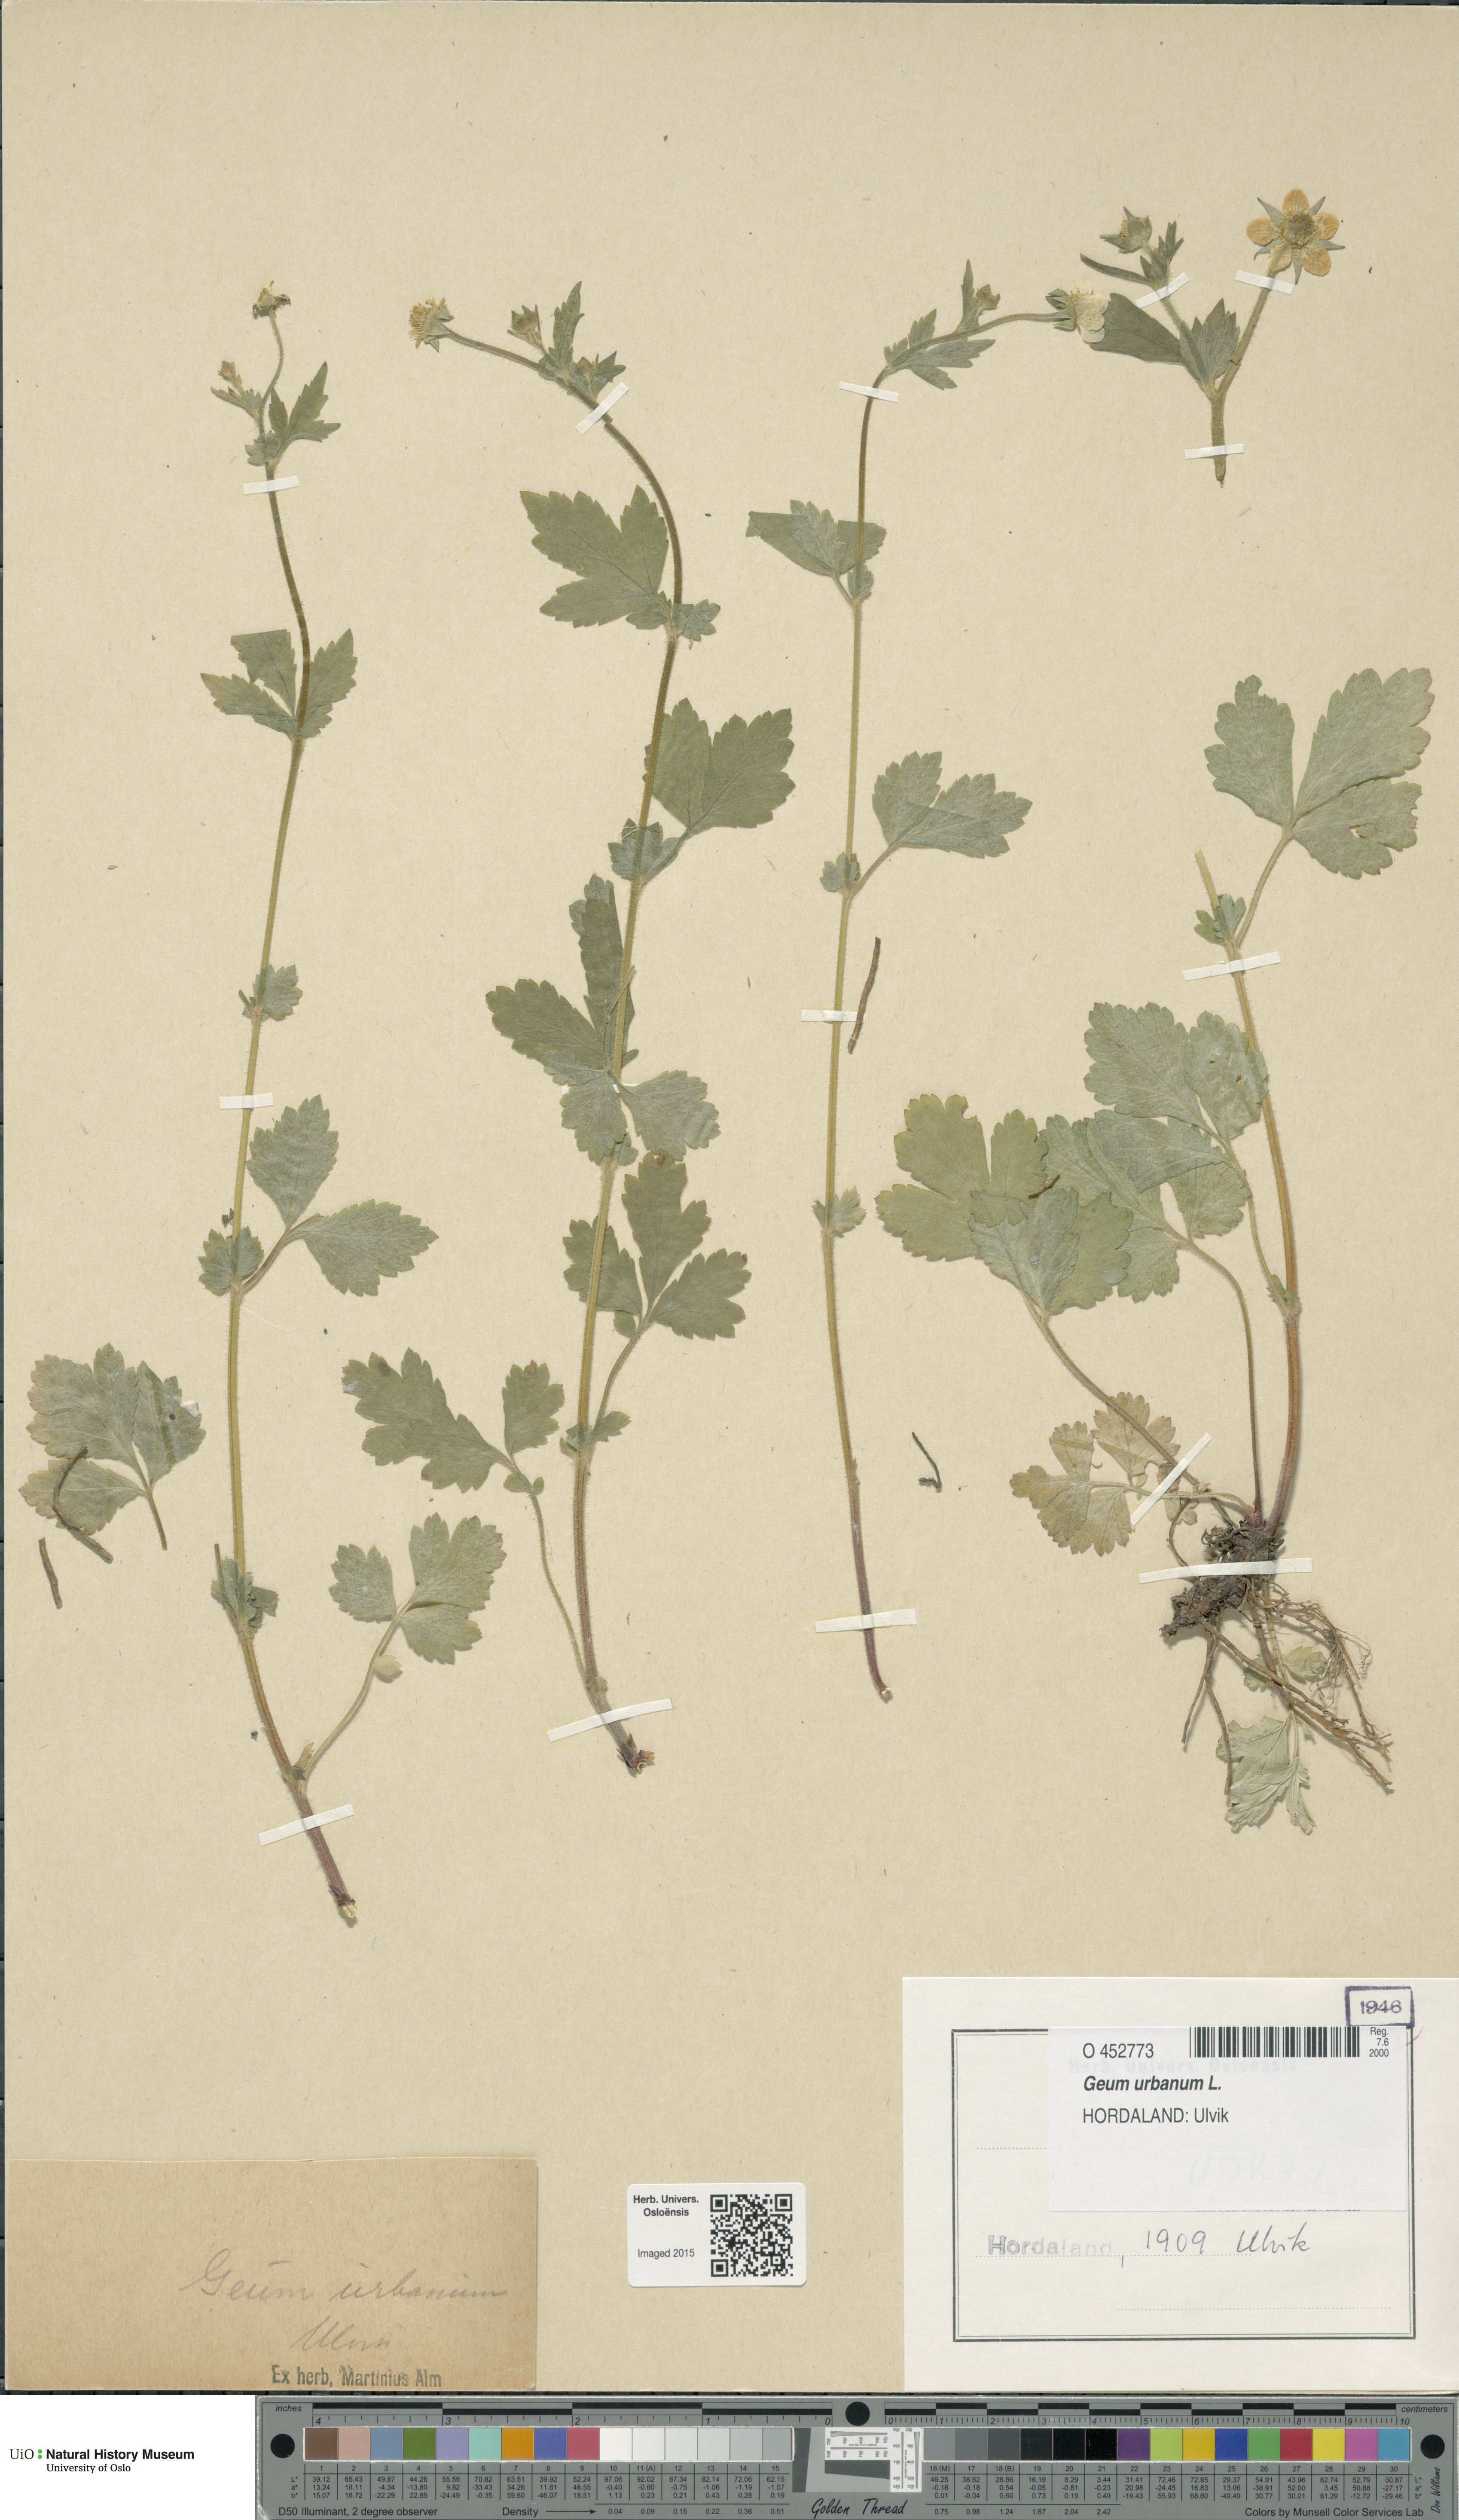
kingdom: Plantae
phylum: Tracheophyta
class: Magnoliopsida
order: Rosales
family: Rosaceae
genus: Geum
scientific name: Geum urbanum
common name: Wood avens
